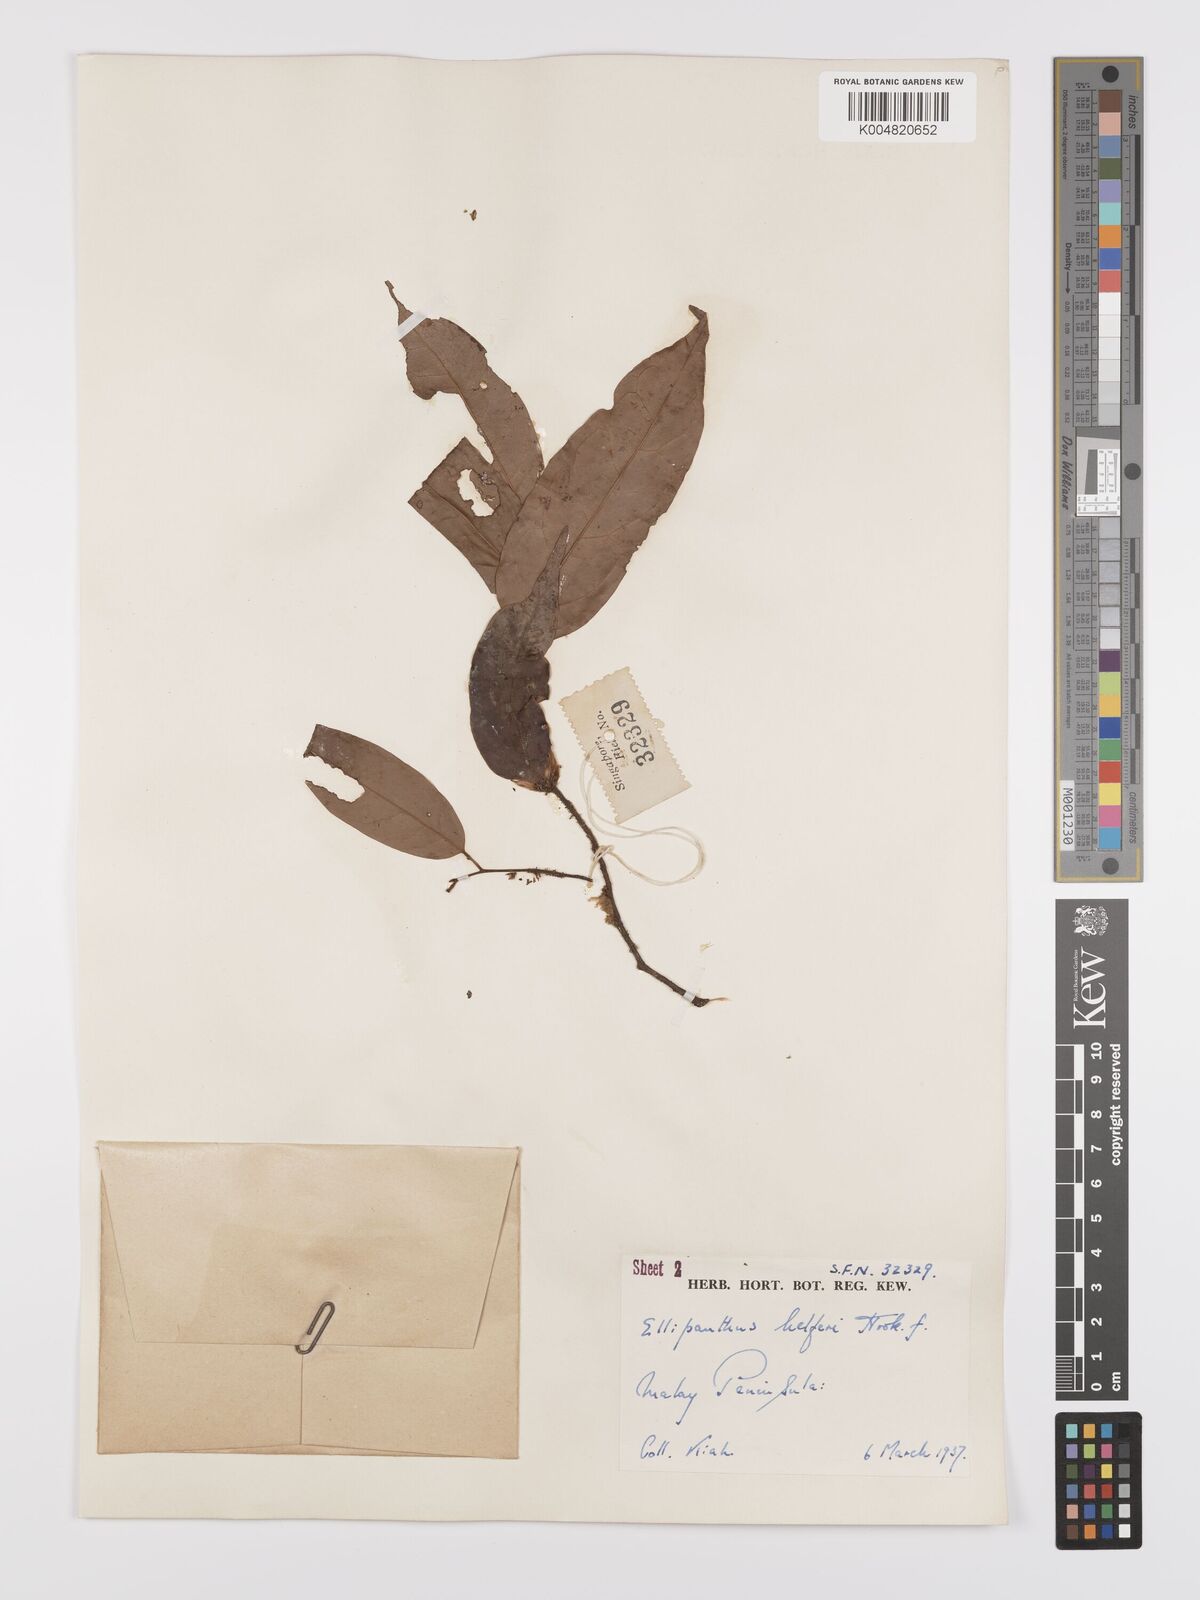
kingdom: Plantae
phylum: Tracheophyta
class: Magnoliopsida
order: Oxalidales
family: Connaraceae
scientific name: Connaraceae
